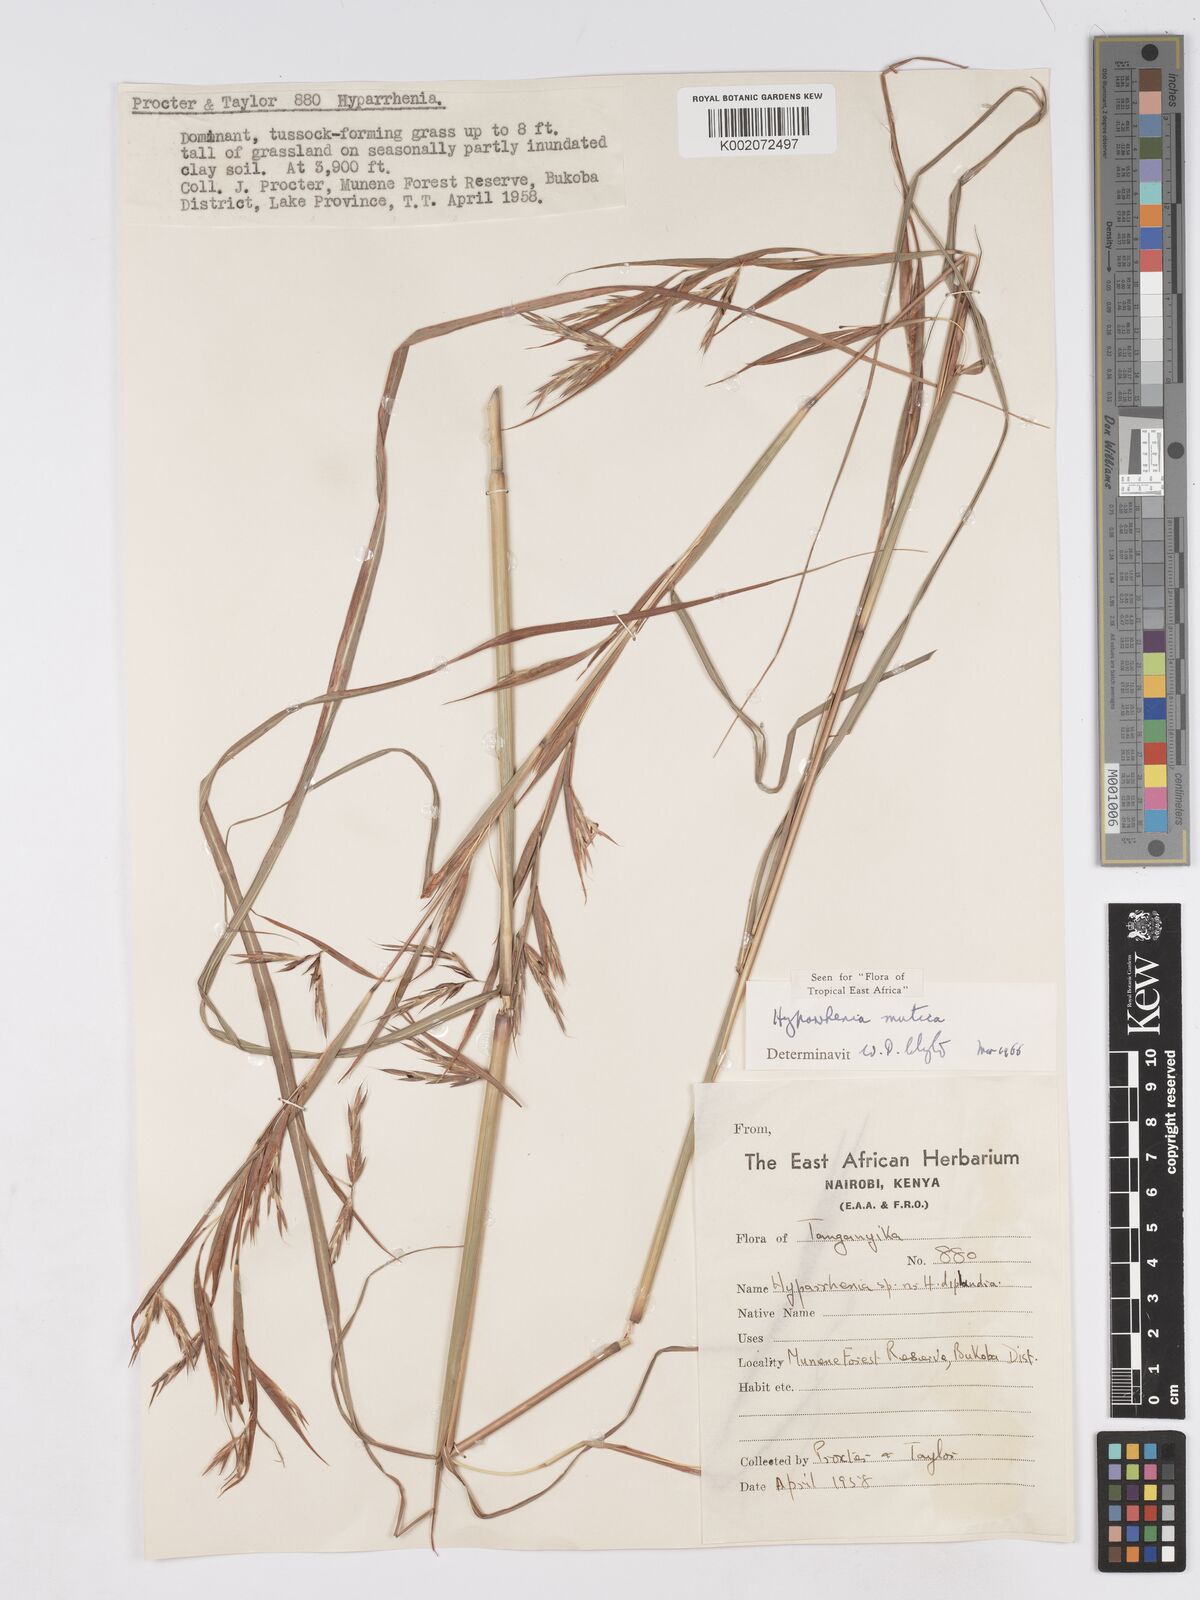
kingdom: Plantae
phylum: Tracheophyta
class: Liliopsida
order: Poales
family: Poaceae
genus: Hyparrhenia
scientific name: Hyparrhenia diplandra
